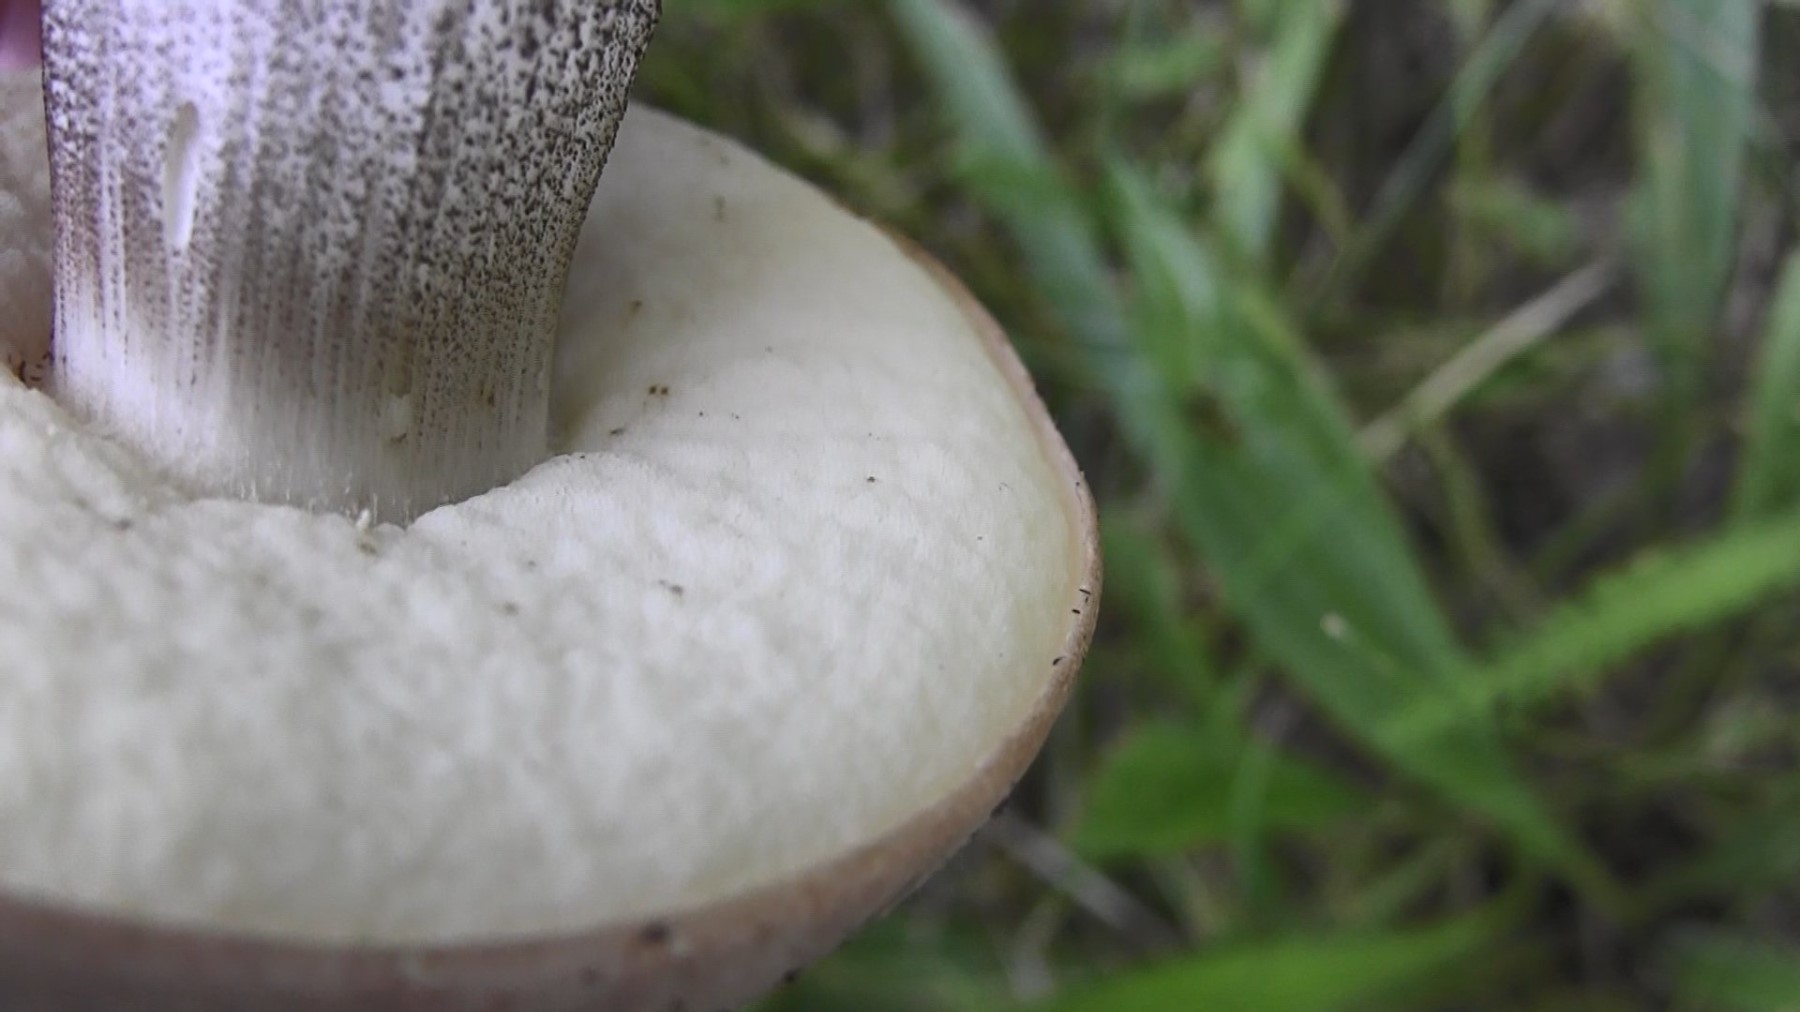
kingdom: Fungi
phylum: Basidiomycota
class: Agaricomycetes
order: Boletales
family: Boletaceae
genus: Leccinum
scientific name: Leccinum duriusculum
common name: poppel-skælrørhat
